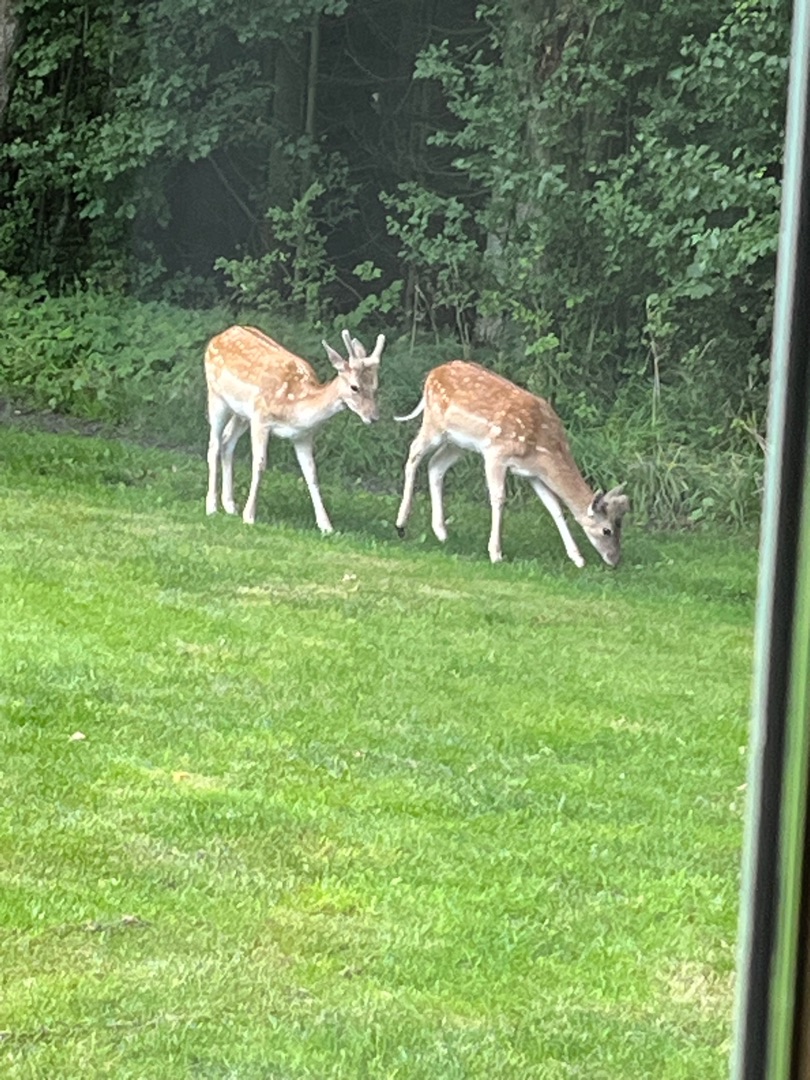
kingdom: Animalia
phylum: Chordata
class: Mammalia
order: Artiodactyla
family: Cervidae
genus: Dama
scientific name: Dama dama
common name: Dådyr
